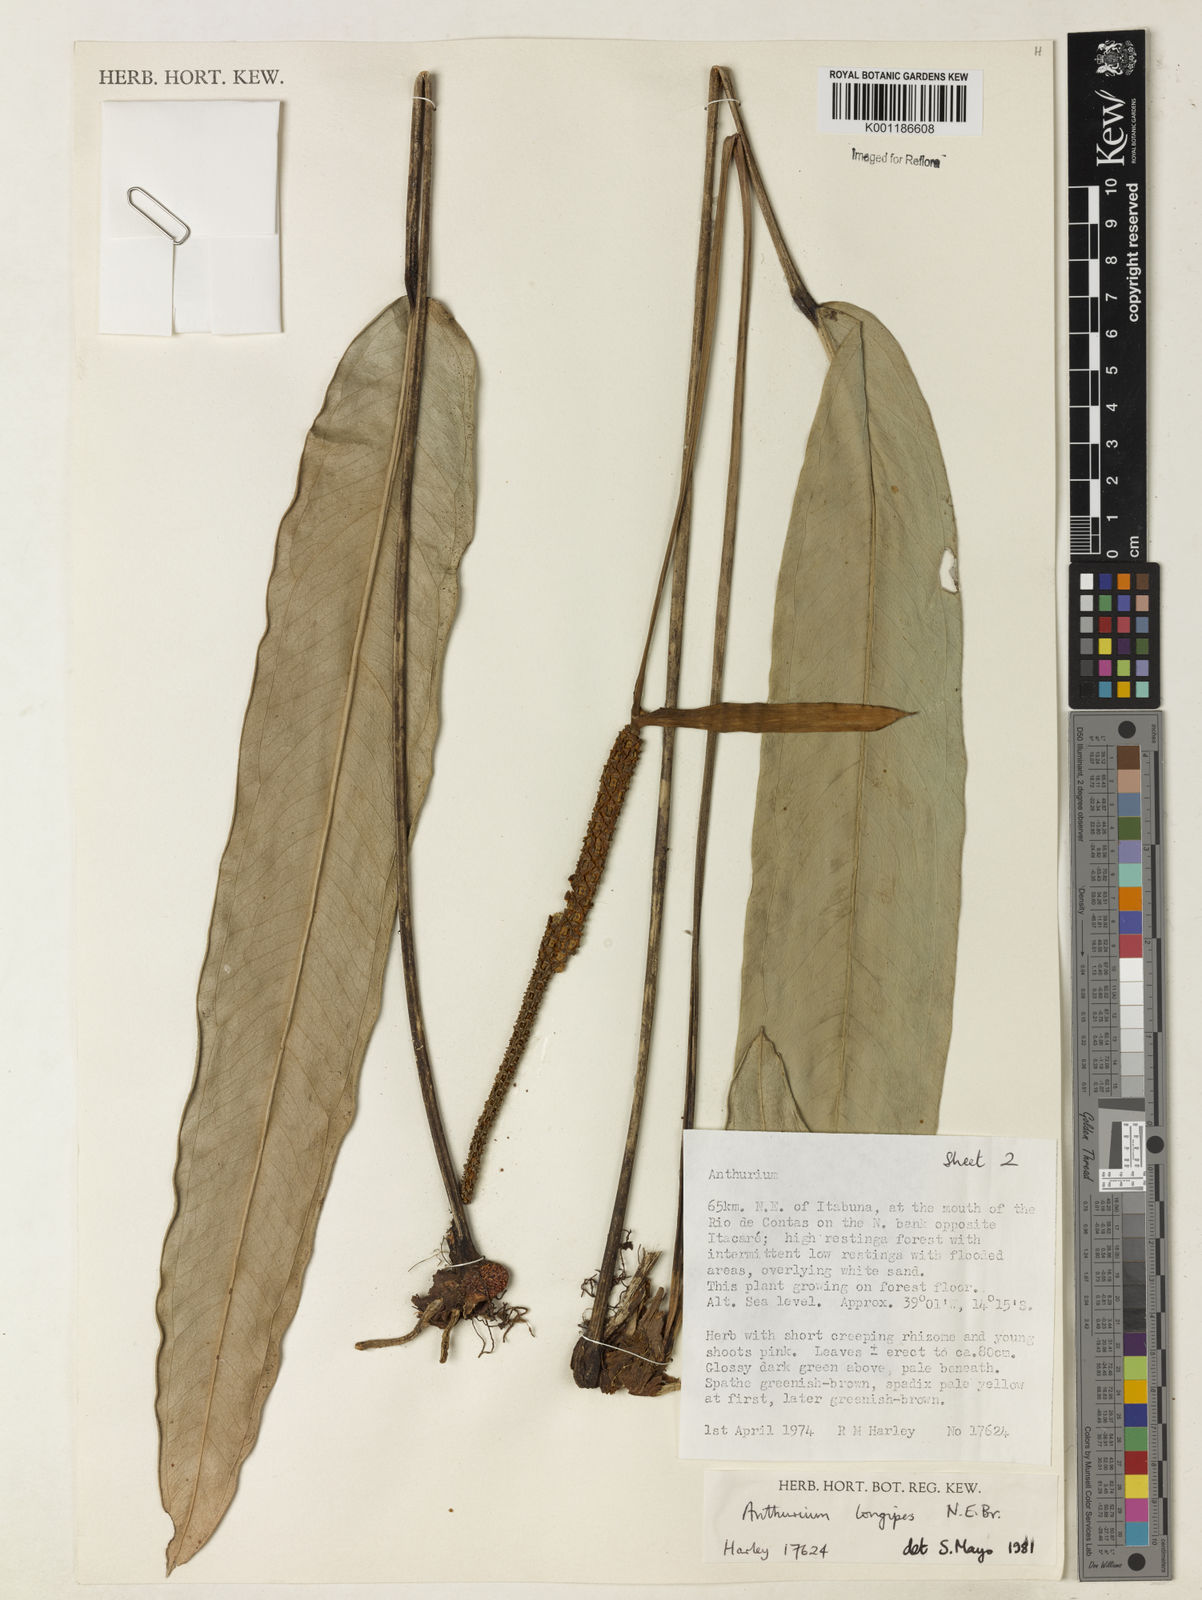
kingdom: Plantae
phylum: Tracheophyta
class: Liliopsida
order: Alismatales
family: Araceae
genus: Anthurium
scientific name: Anthurium longipes
